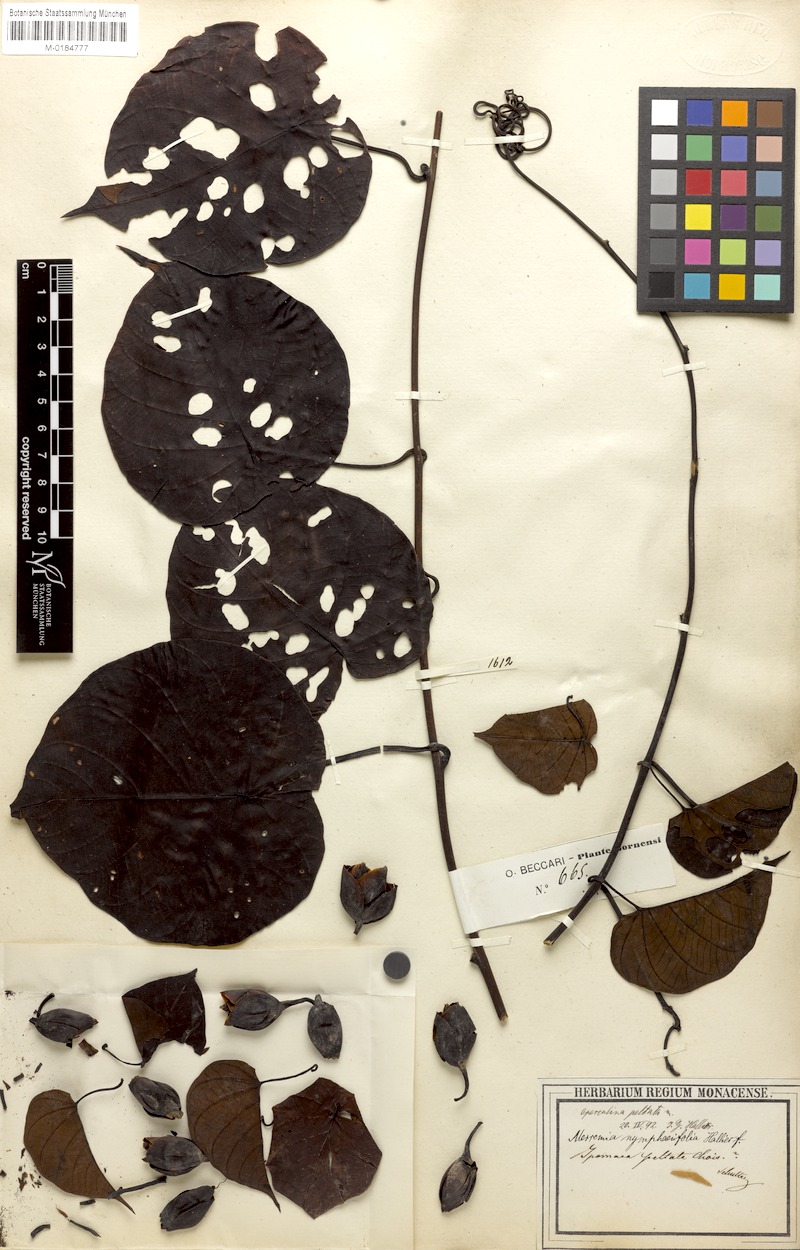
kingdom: Plantae
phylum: Tracheophyta
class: Magnoliopsida
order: Solanales
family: Convolvulaceae
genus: Decalobanthus
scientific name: Decalobanthus peltatus
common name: Merremia
